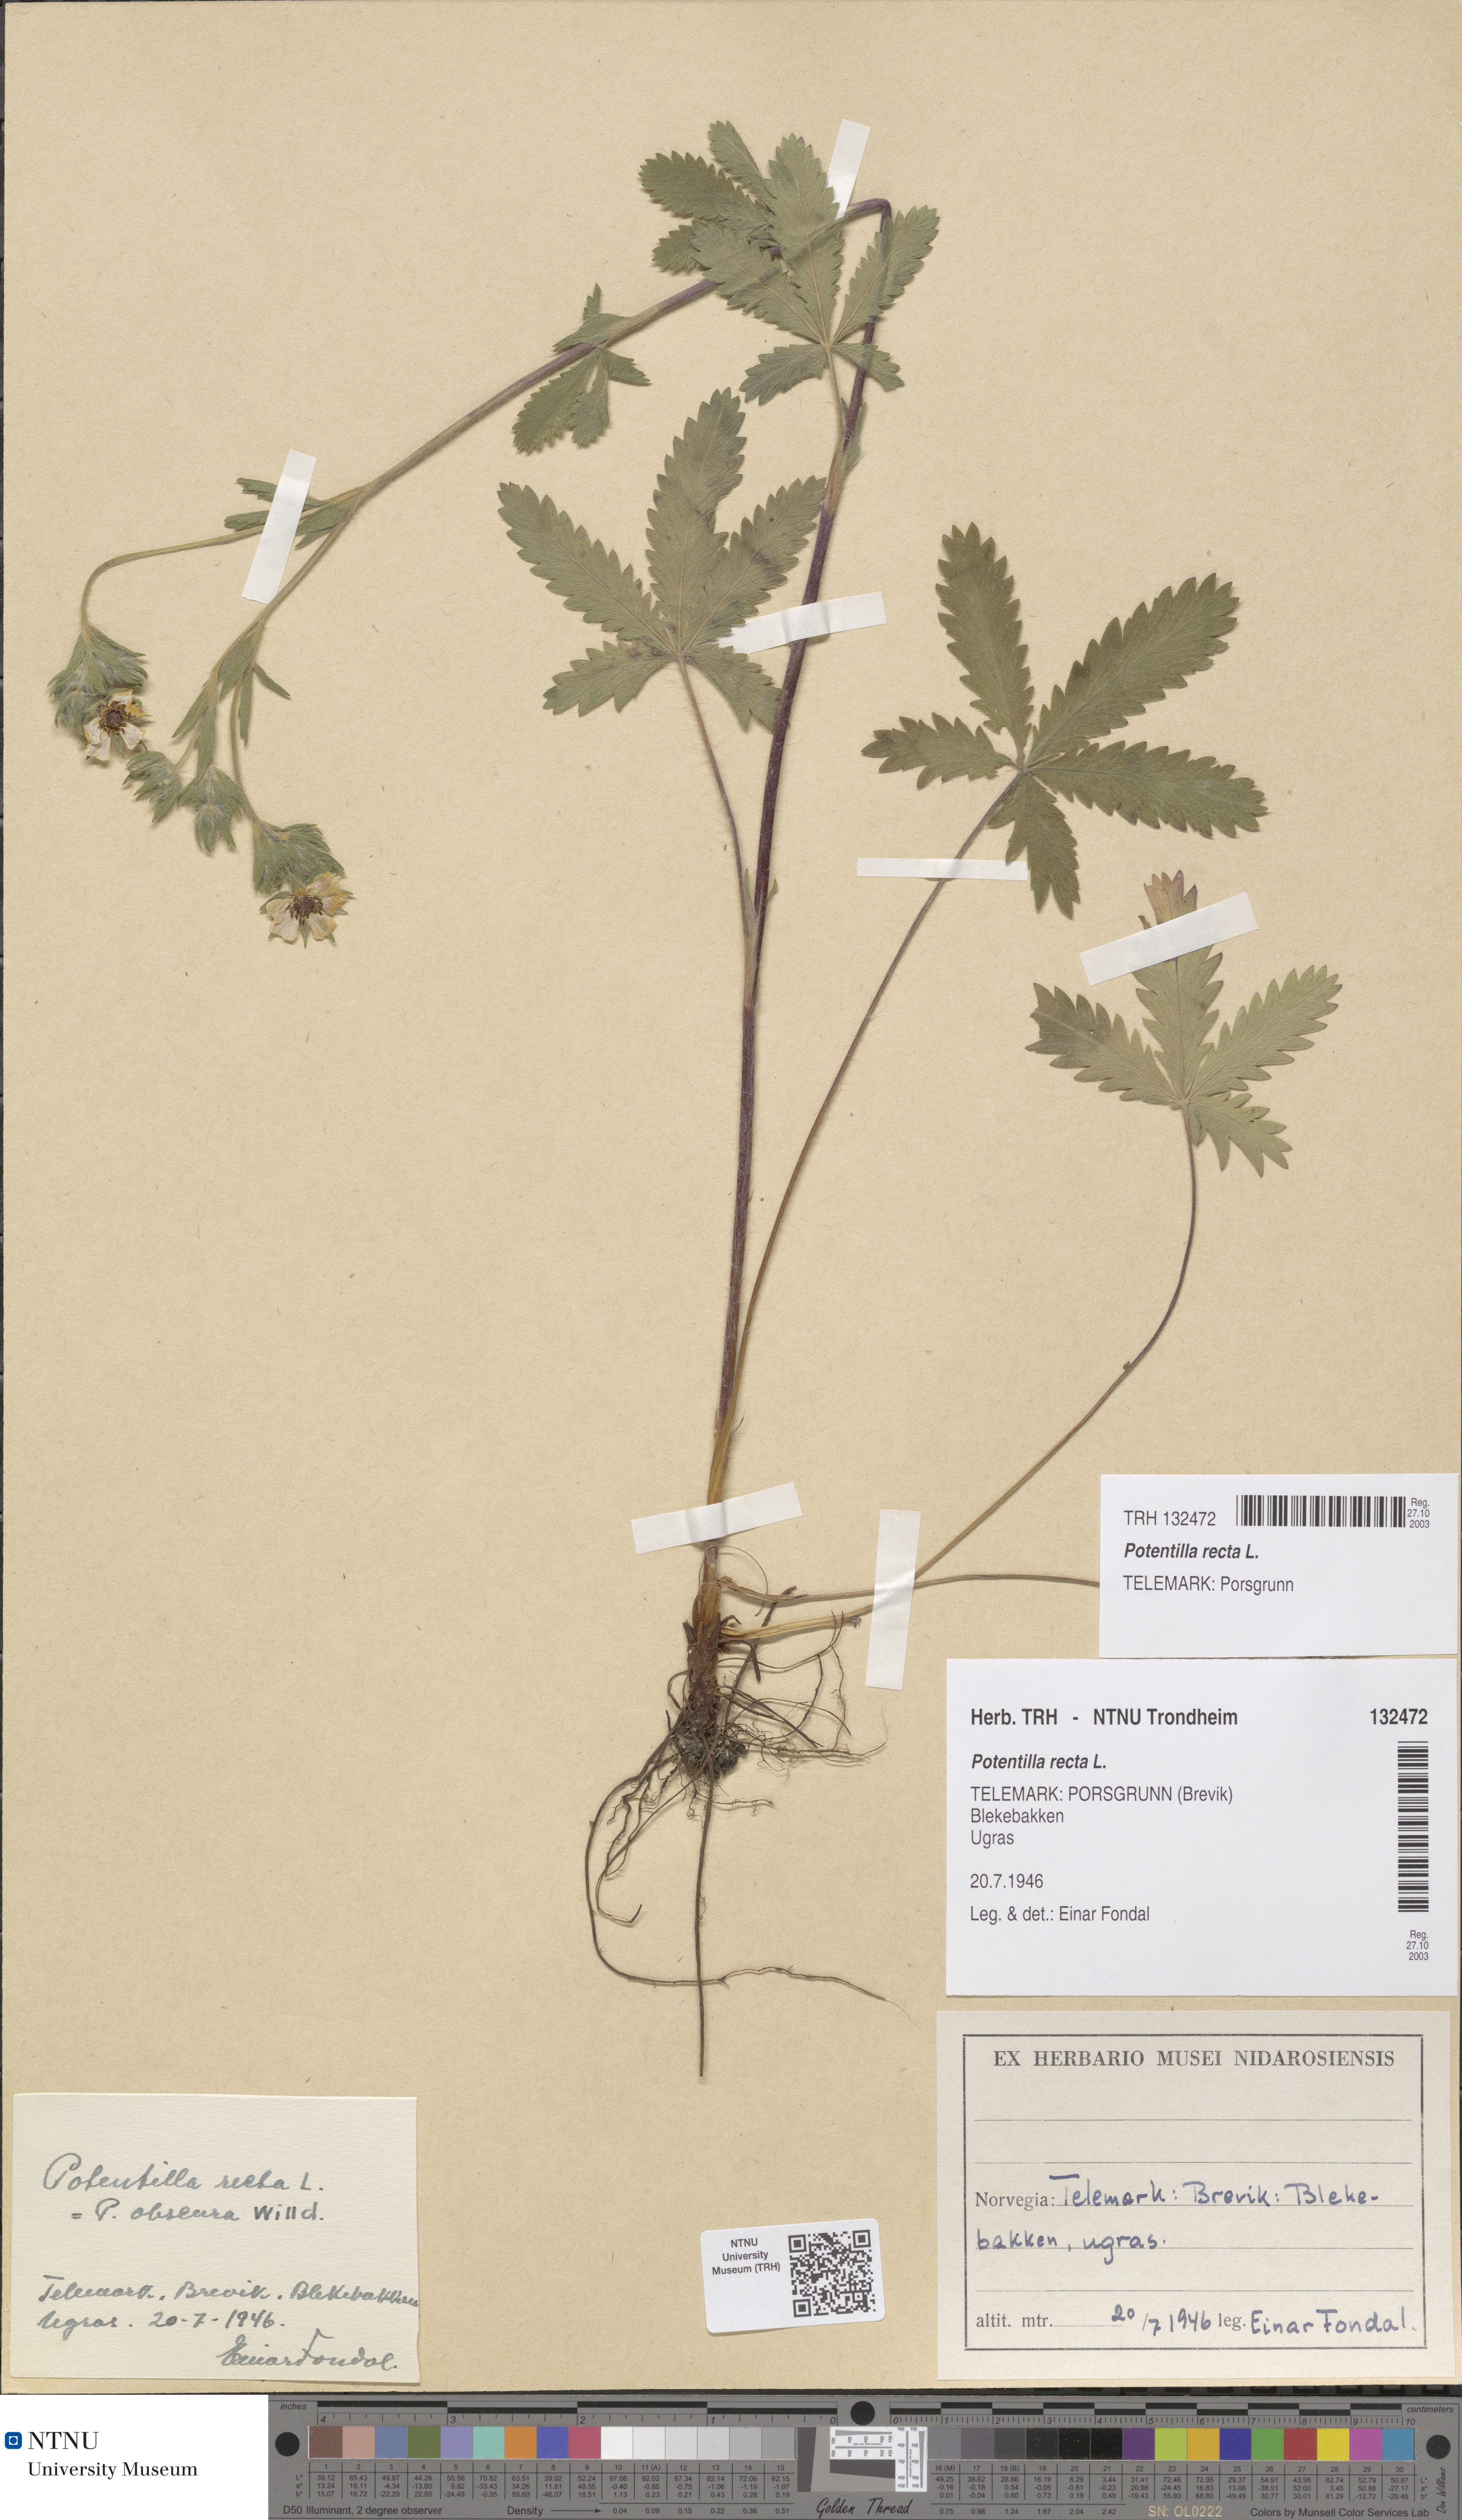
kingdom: Plantae
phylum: Tracheophyta
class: Magnoliopsida
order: Rosales
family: Rosaceae
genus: Potentilla
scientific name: Potentilla recta
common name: Sulphur cinquefoil
